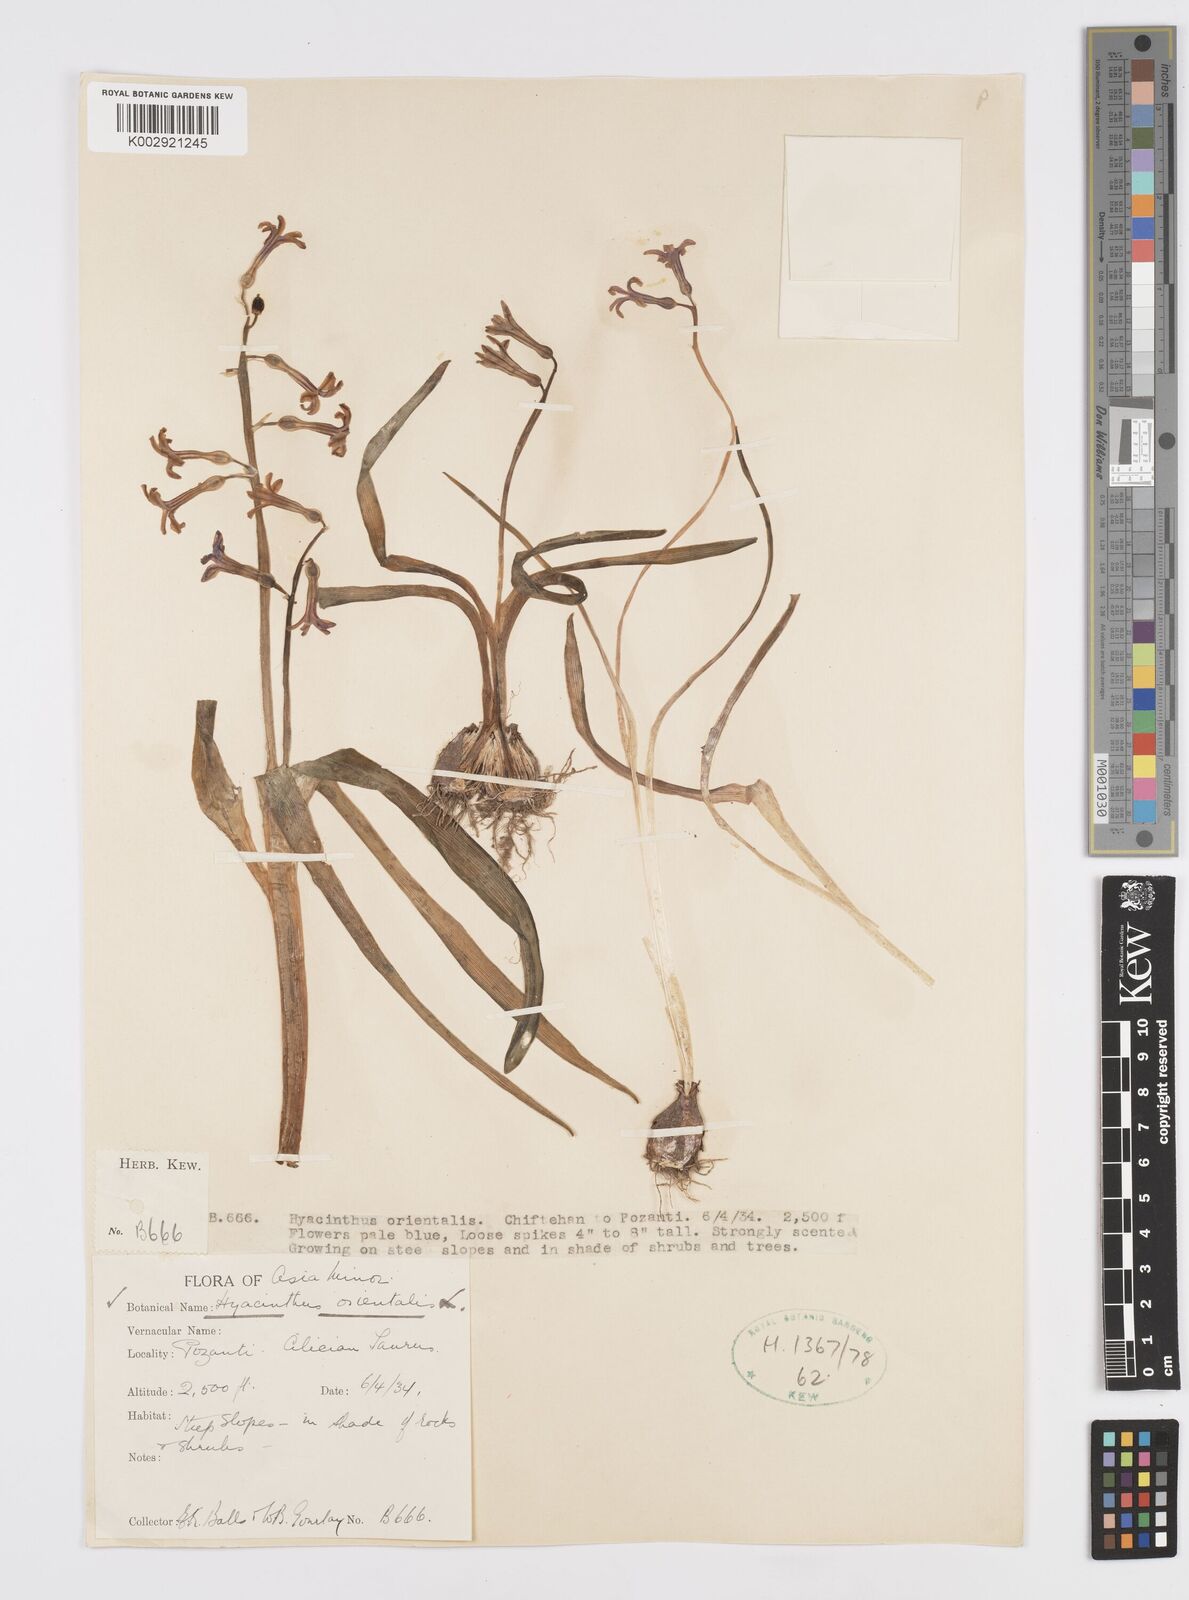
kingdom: Plantae
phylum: Tracheophyta
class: Liliopsida
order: Asparagales
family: Asparagaceae
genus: Hyacinthus
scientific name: Hyacinthus orientalis
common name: Hyacinth
